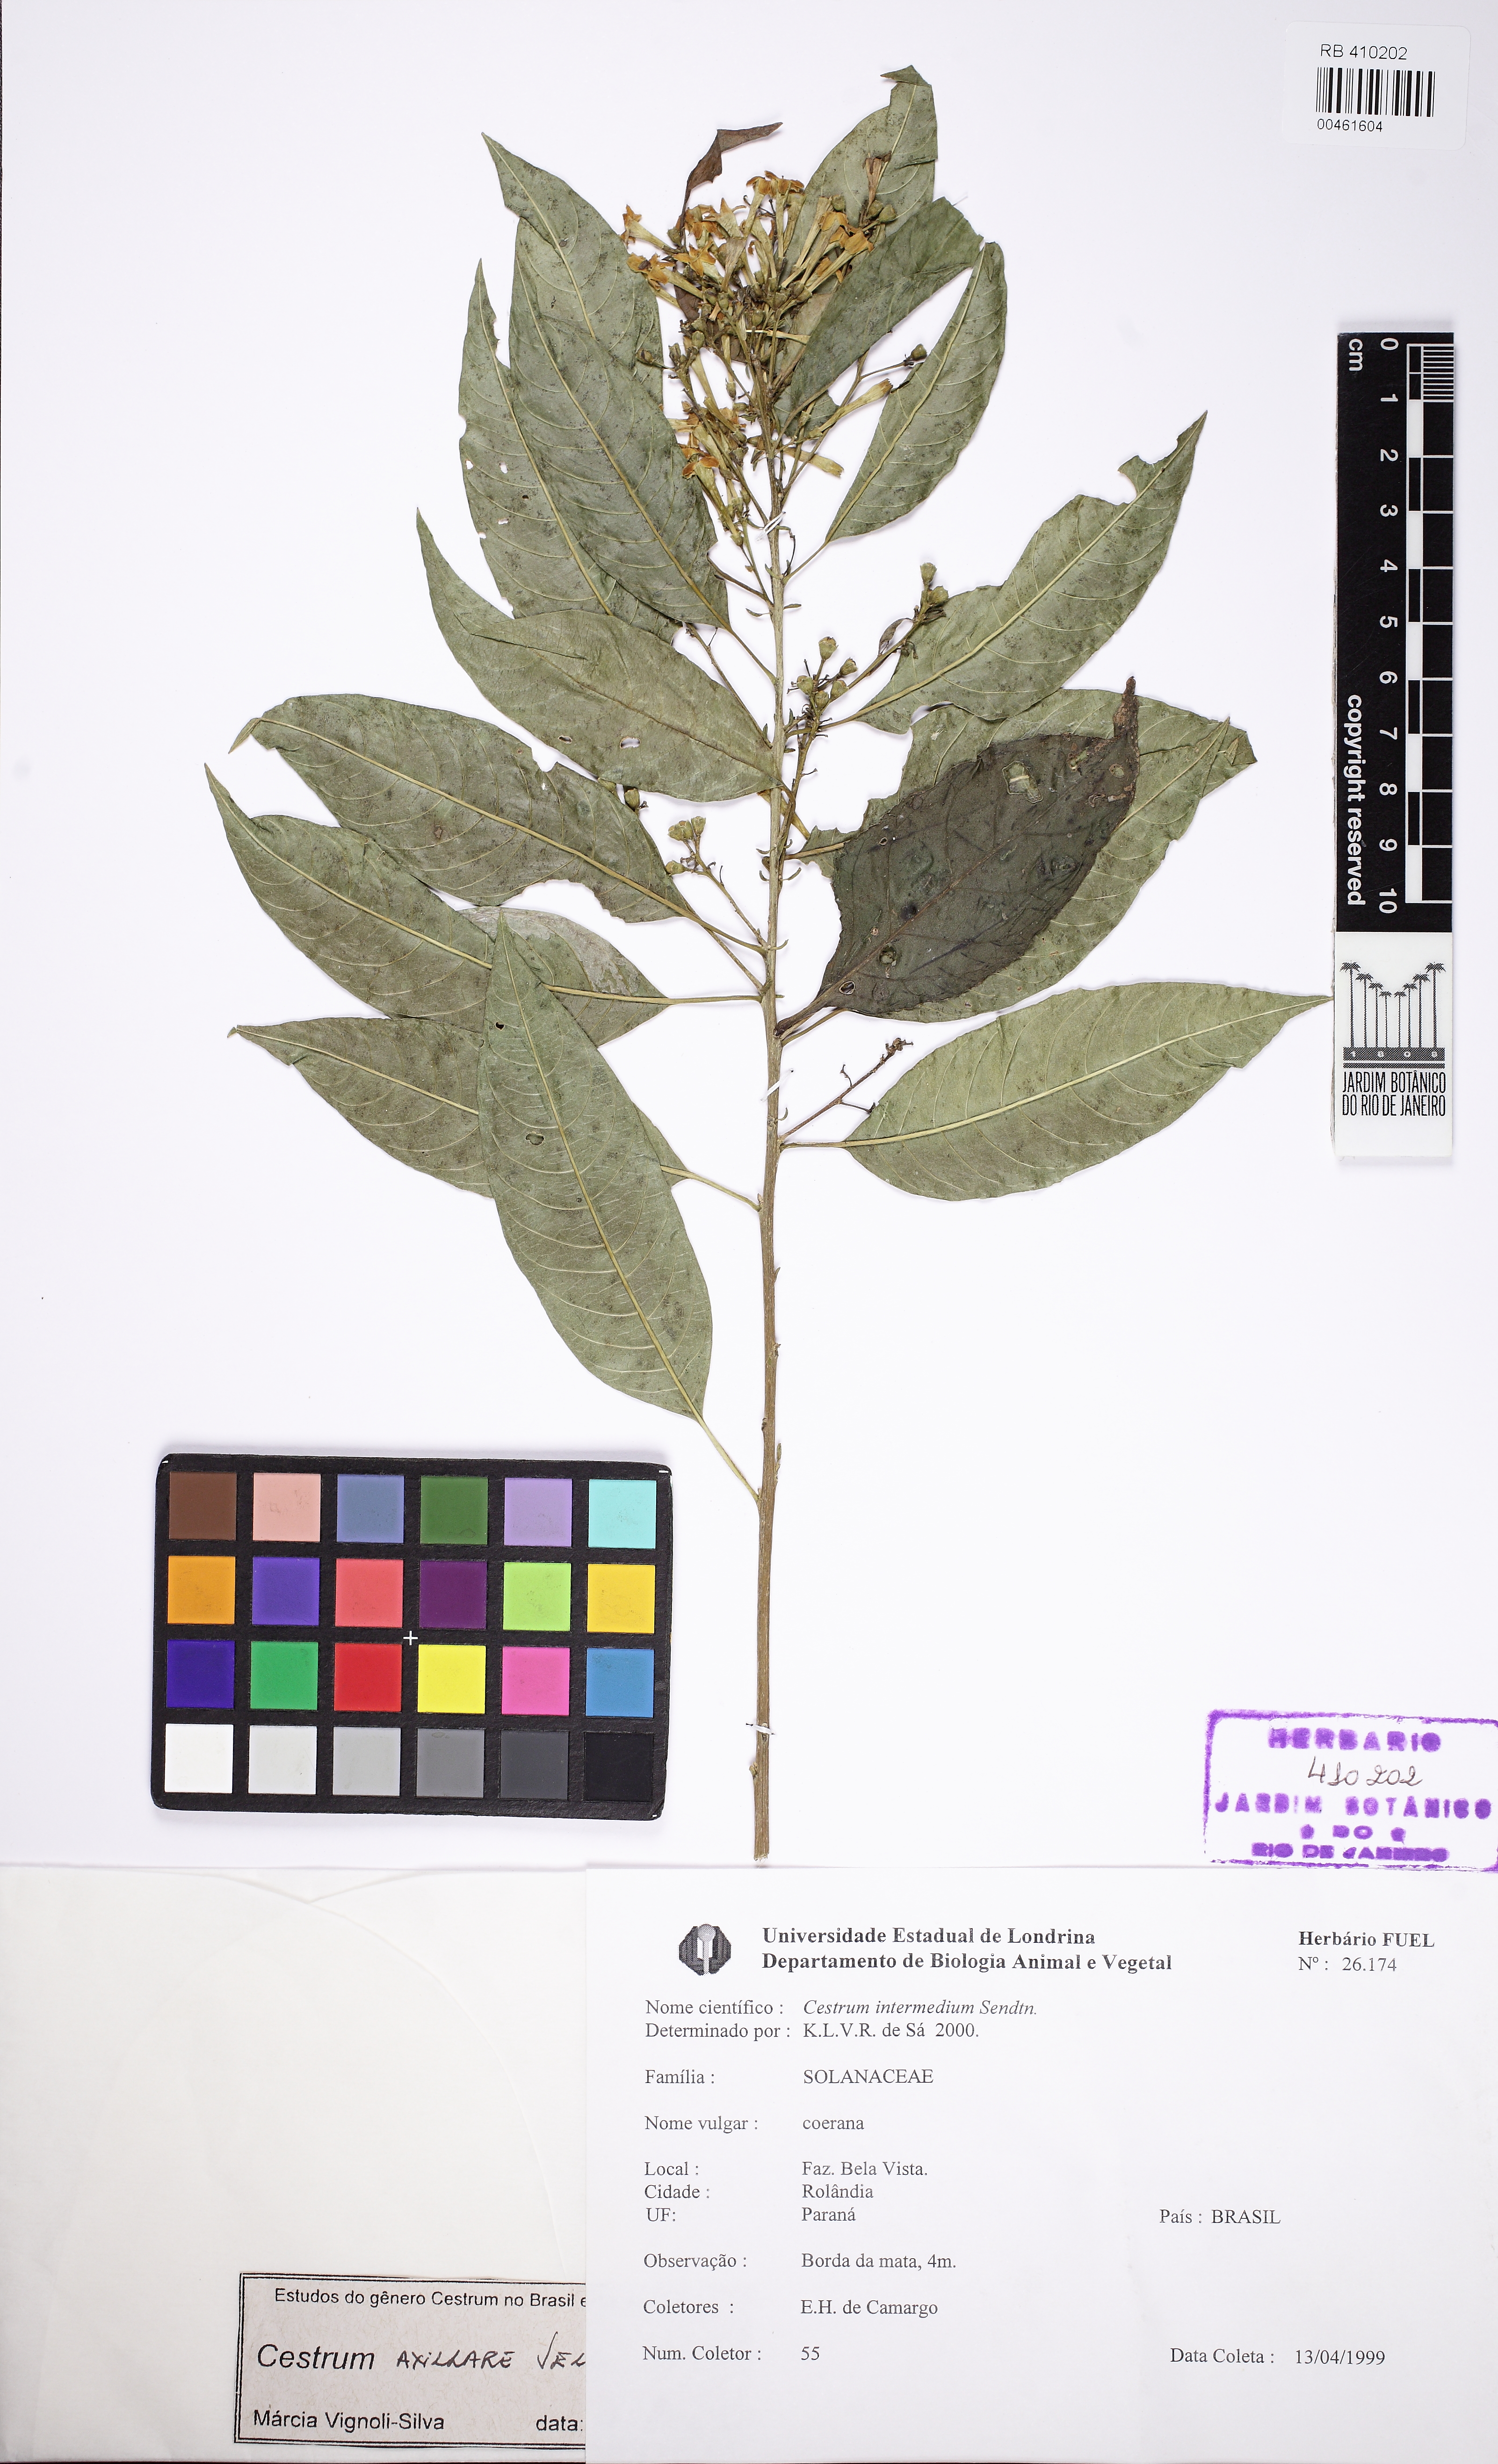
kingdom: Plantae
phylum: Tracheophyta
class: Magnoliopsida
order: Solanales
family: Solanaceae
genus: Cestrum
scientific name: Cestrum laevigatum
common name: Inkberry
